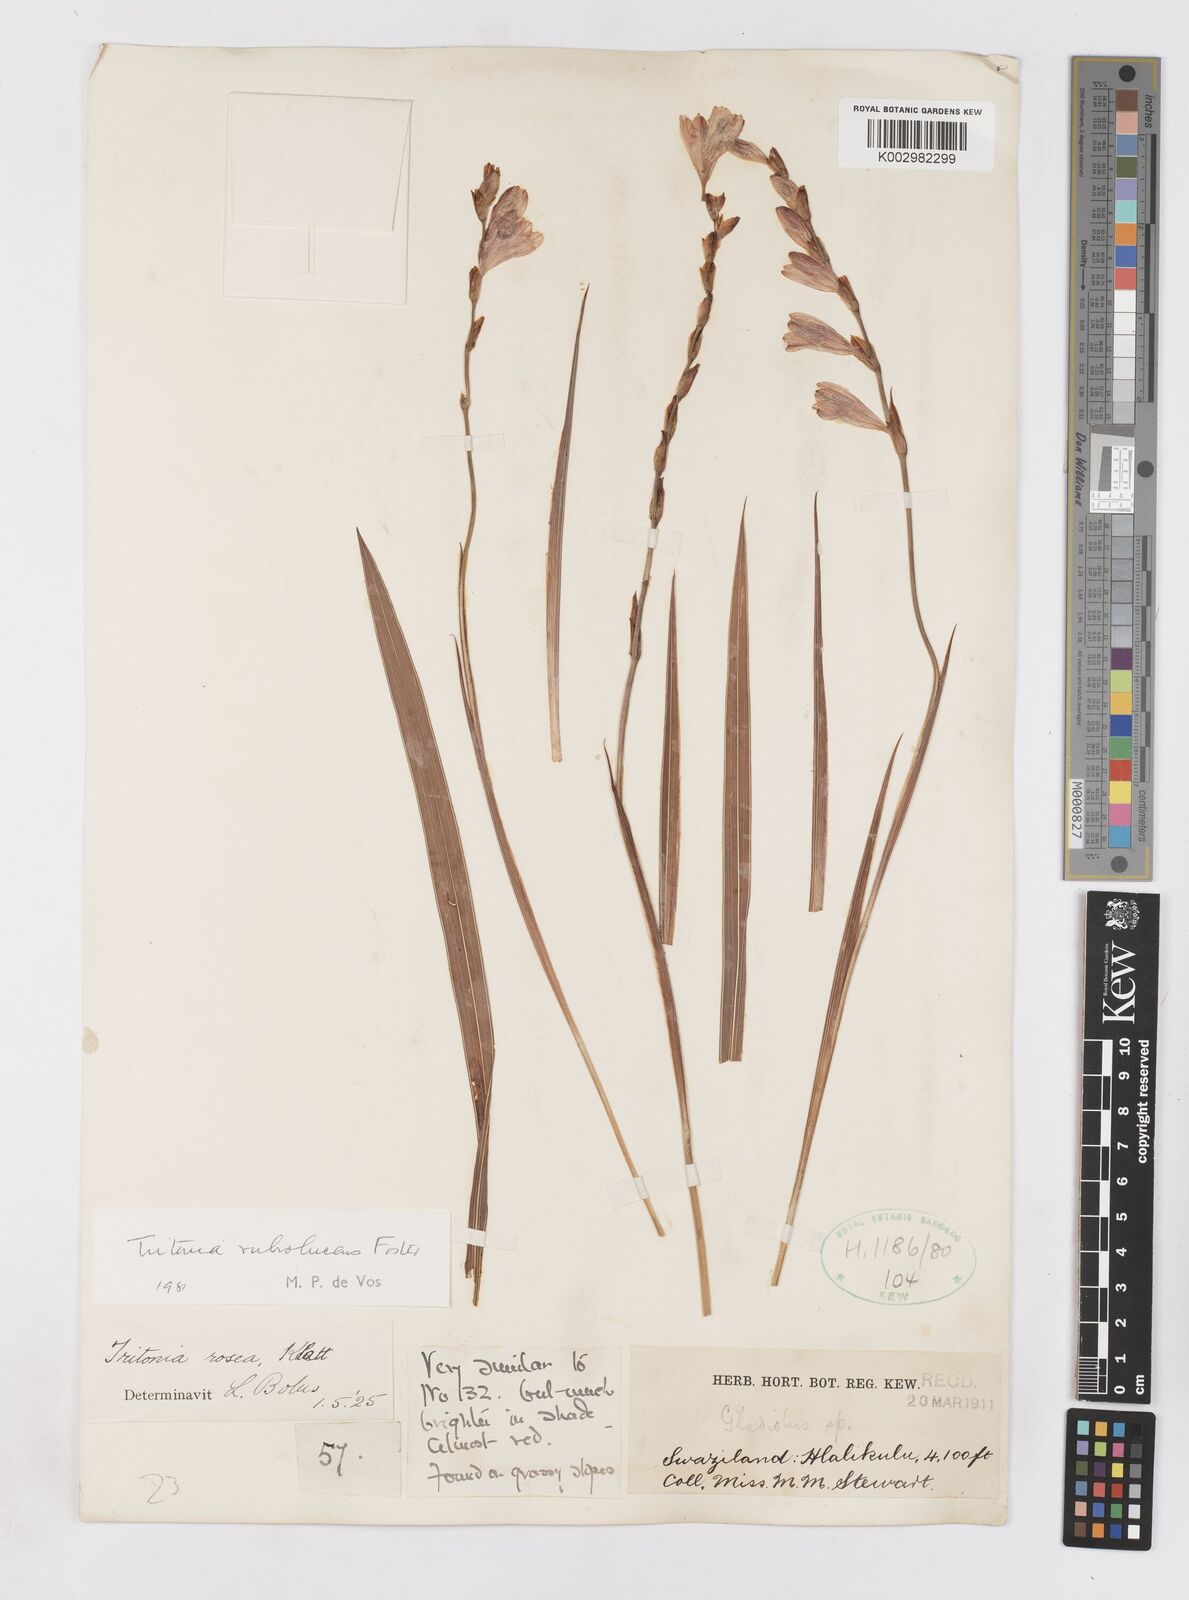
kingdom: Plantae
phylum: Tracheophyta
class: Liliopsida
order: Asparagales
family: Iridaceae
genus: Tritonia
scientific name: Tritonia disticha
